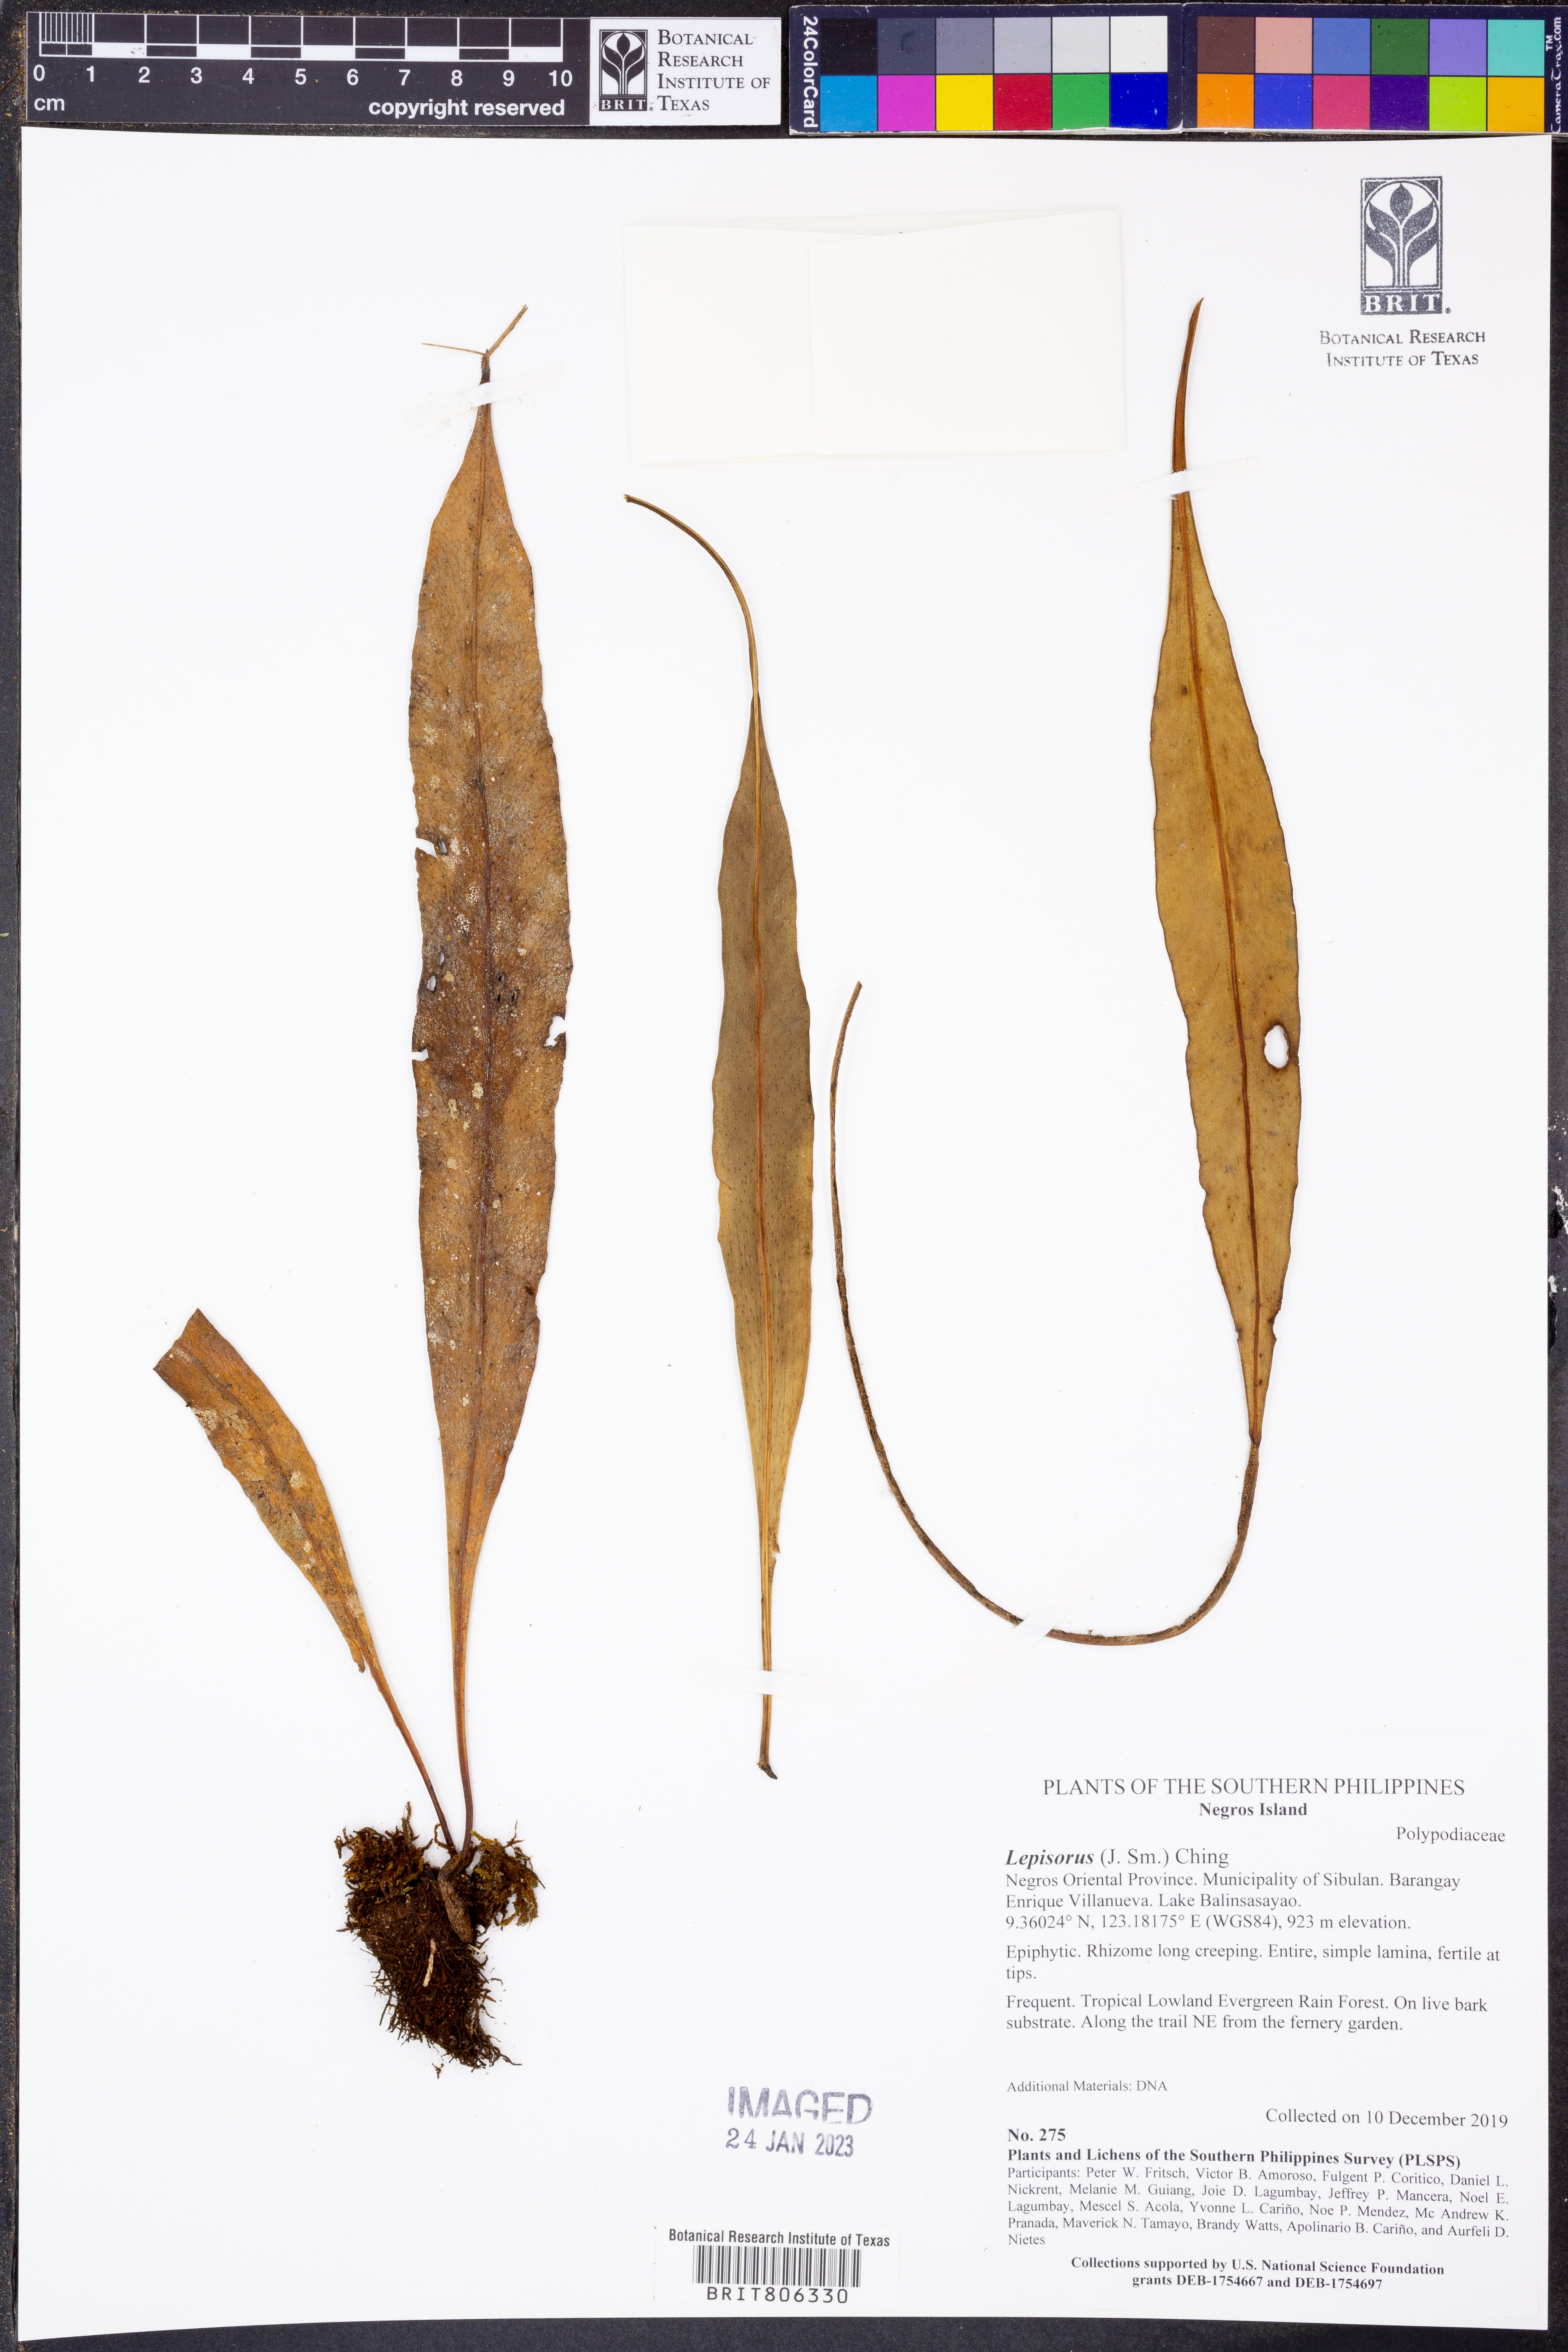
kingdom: Plantae
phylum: Tracheophyta
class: Polypodiopsida
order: Polypodiales
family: Polypodiaceae
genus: Lepisorus
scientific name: Lepisorus
